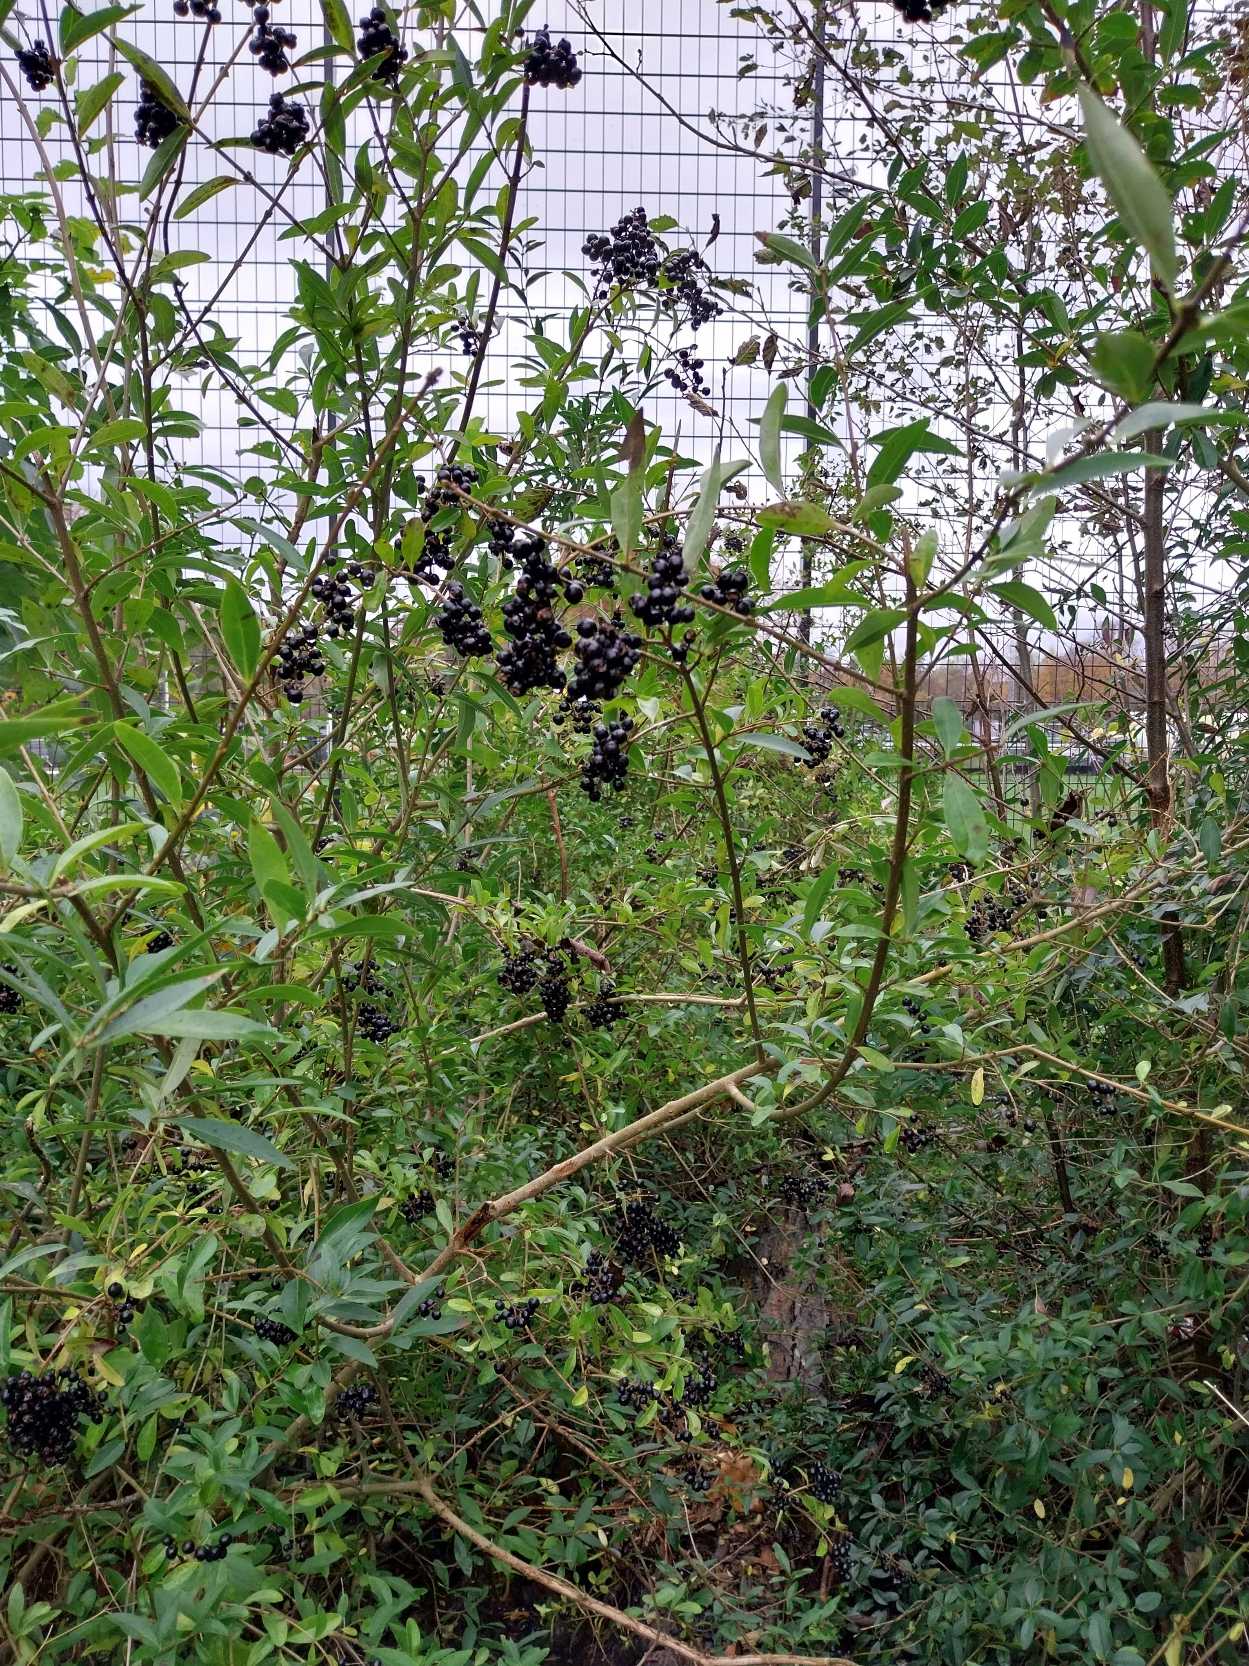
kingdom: Plantae
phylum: Tracheophyta
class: Magnoliopsida
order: Lamiales
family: Oleaceae
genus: Ligustrum
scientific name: Ligustrum vulgare
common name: Liguster
